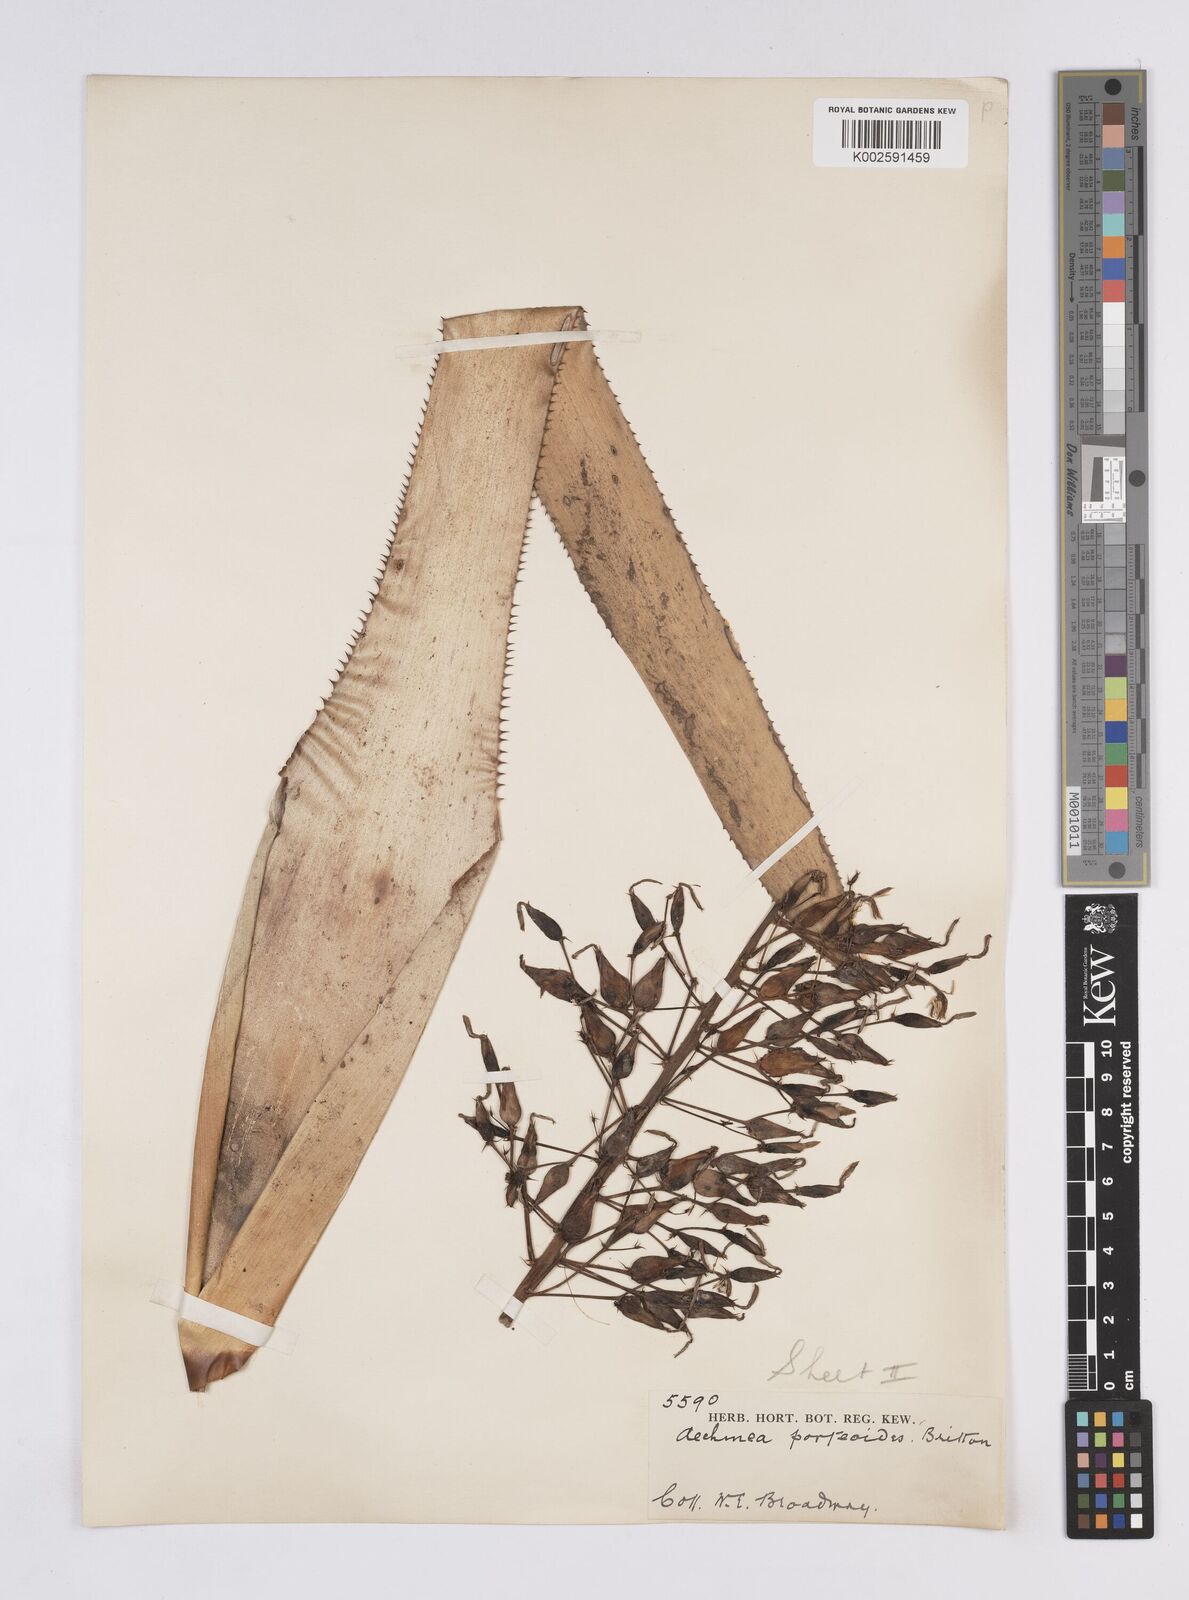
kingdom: Plantae
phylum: Tracheophyta
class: Liliopsida
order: Poales
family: Bromeliaceae
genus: Aechmea
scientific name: Aechmea fendleri
